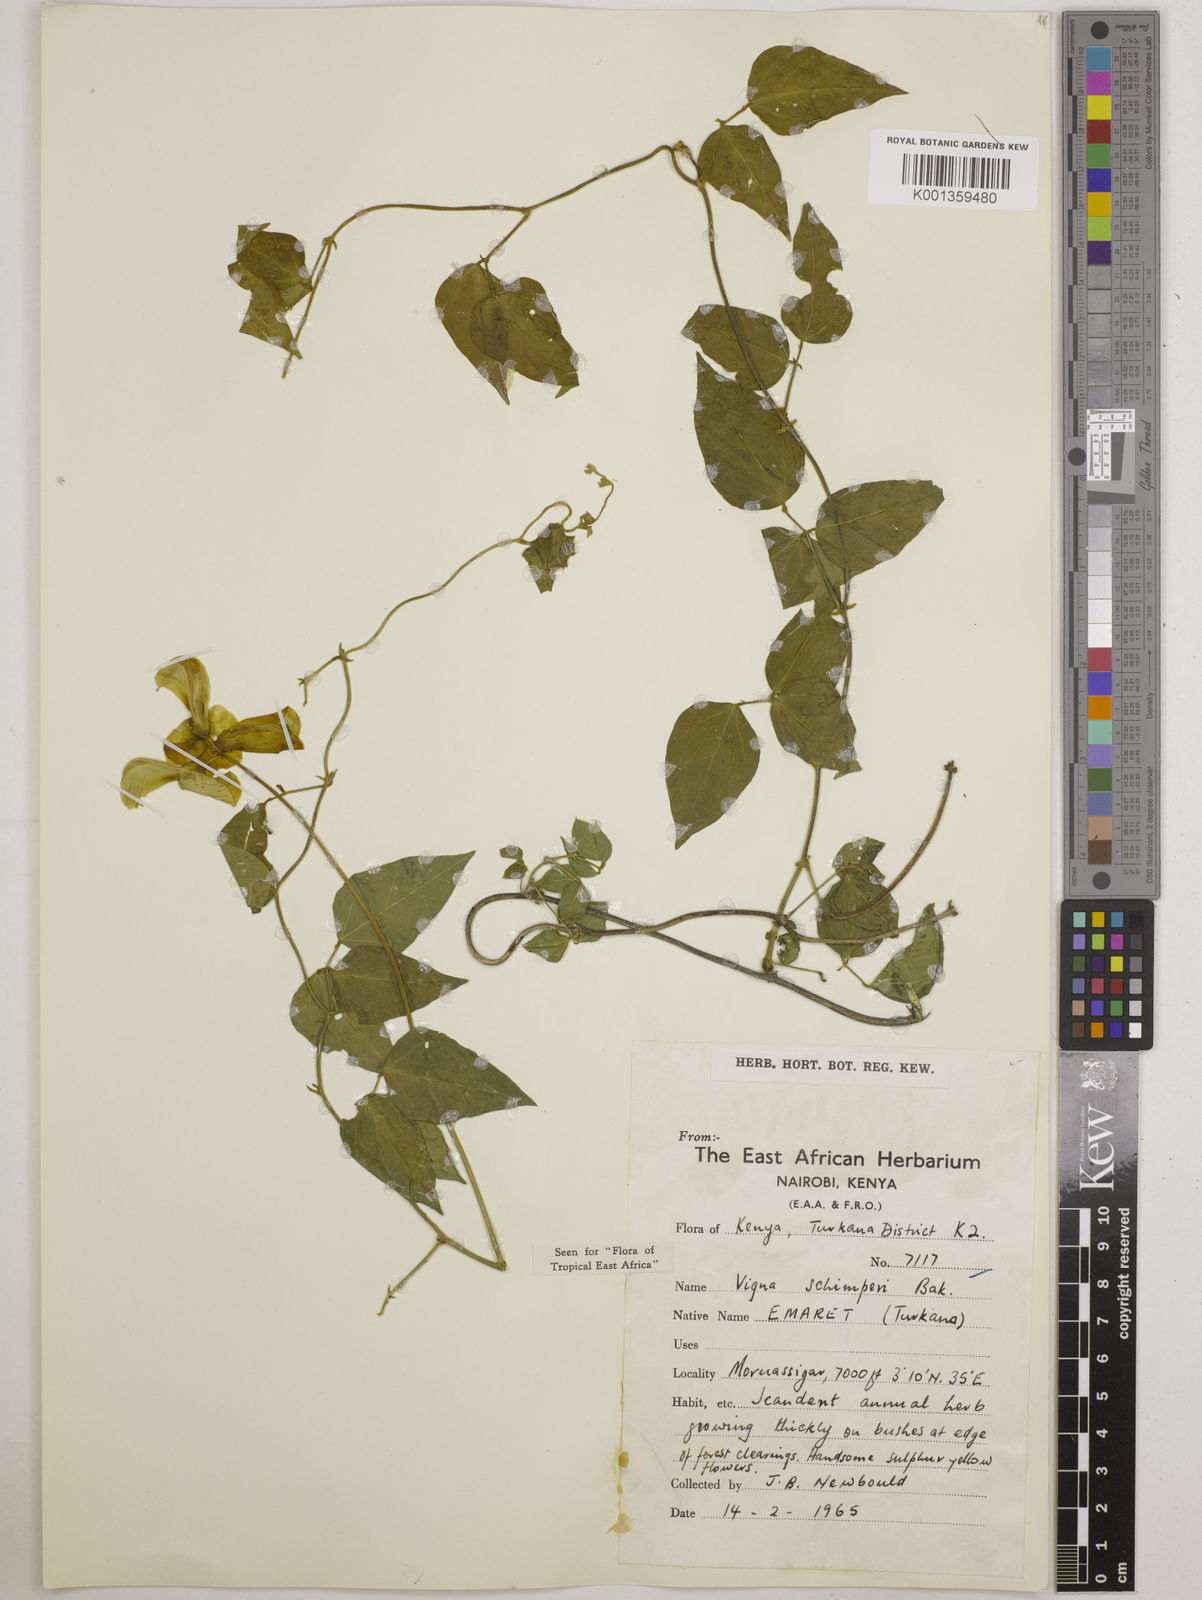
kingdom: Plantae
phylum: Tracheophyta
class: Magnoliopsida
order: Fabales
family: Fabaceae
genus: Vigna
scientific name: Vigna schimperi
